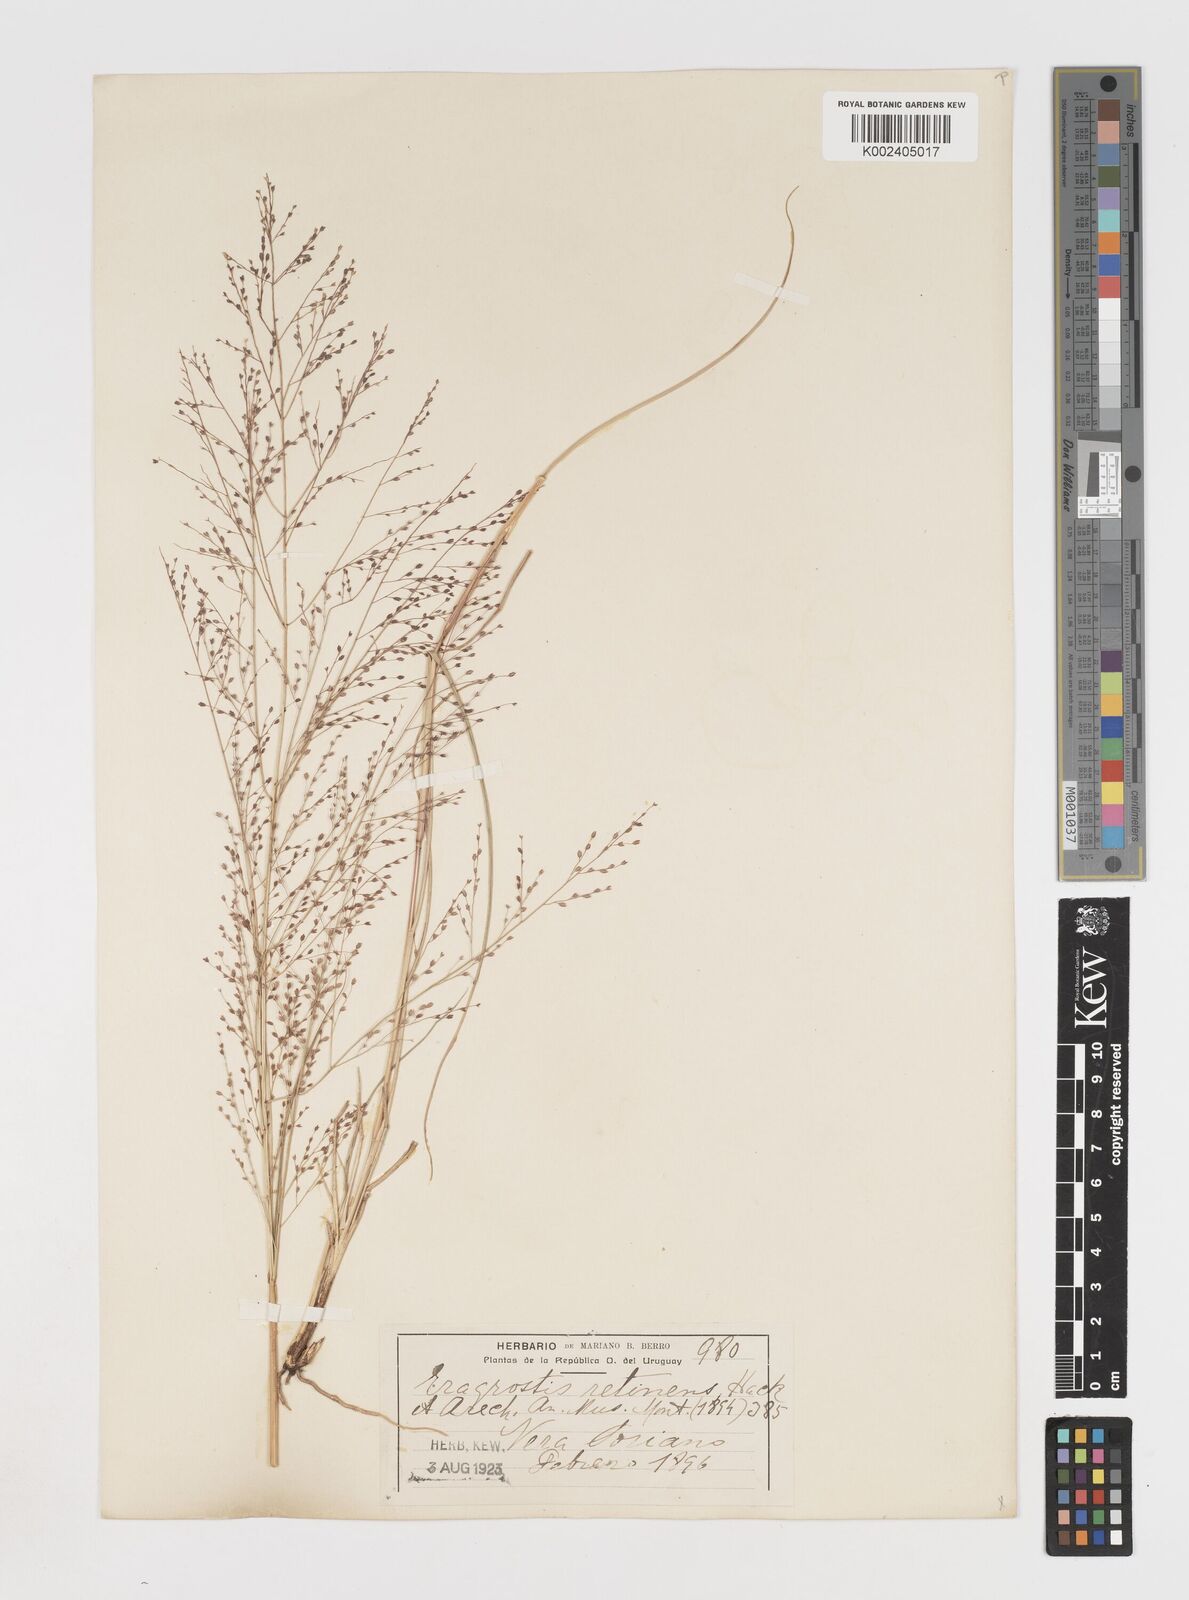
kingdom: Plantae
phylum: Tracheophyta
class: Liliopsida
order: Poales
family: Poaceae
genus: Eragrostis
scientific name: Eragrostis retinens
